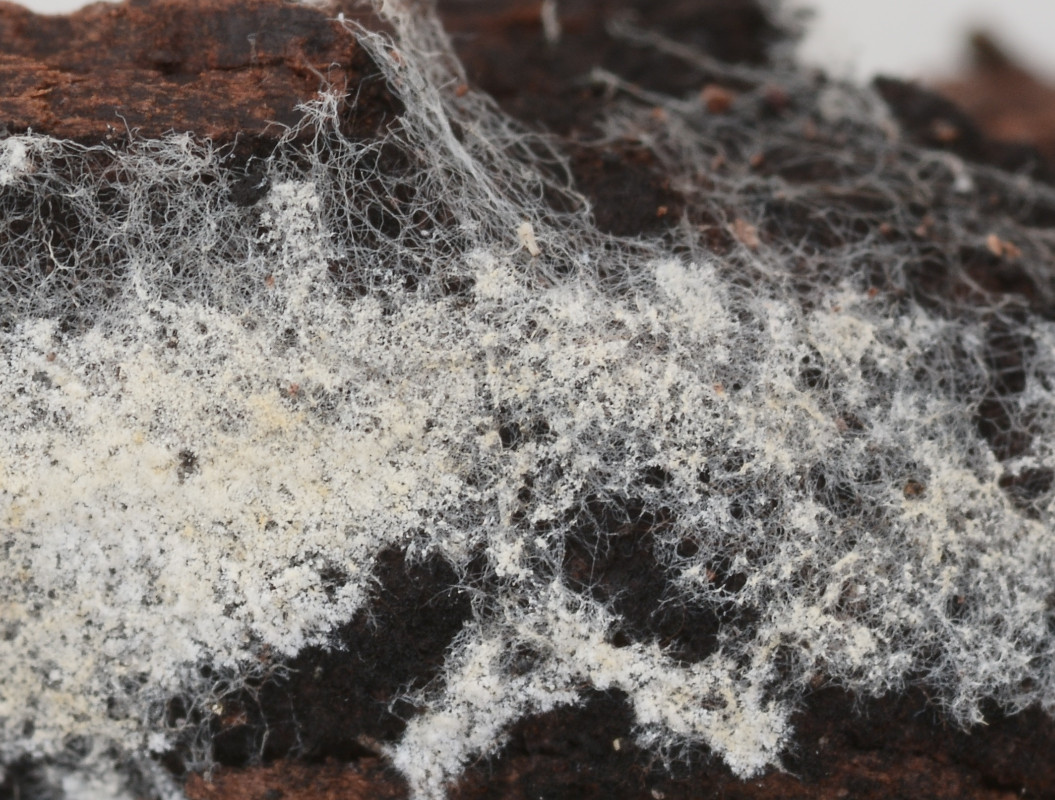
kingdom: Fungi
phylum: Basidiomycota
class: Agaricomycetes
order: Atheliales
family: Atheliaceae
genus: Amphinema
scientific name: Amphinema byssoides
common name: almindelig rodhinde
